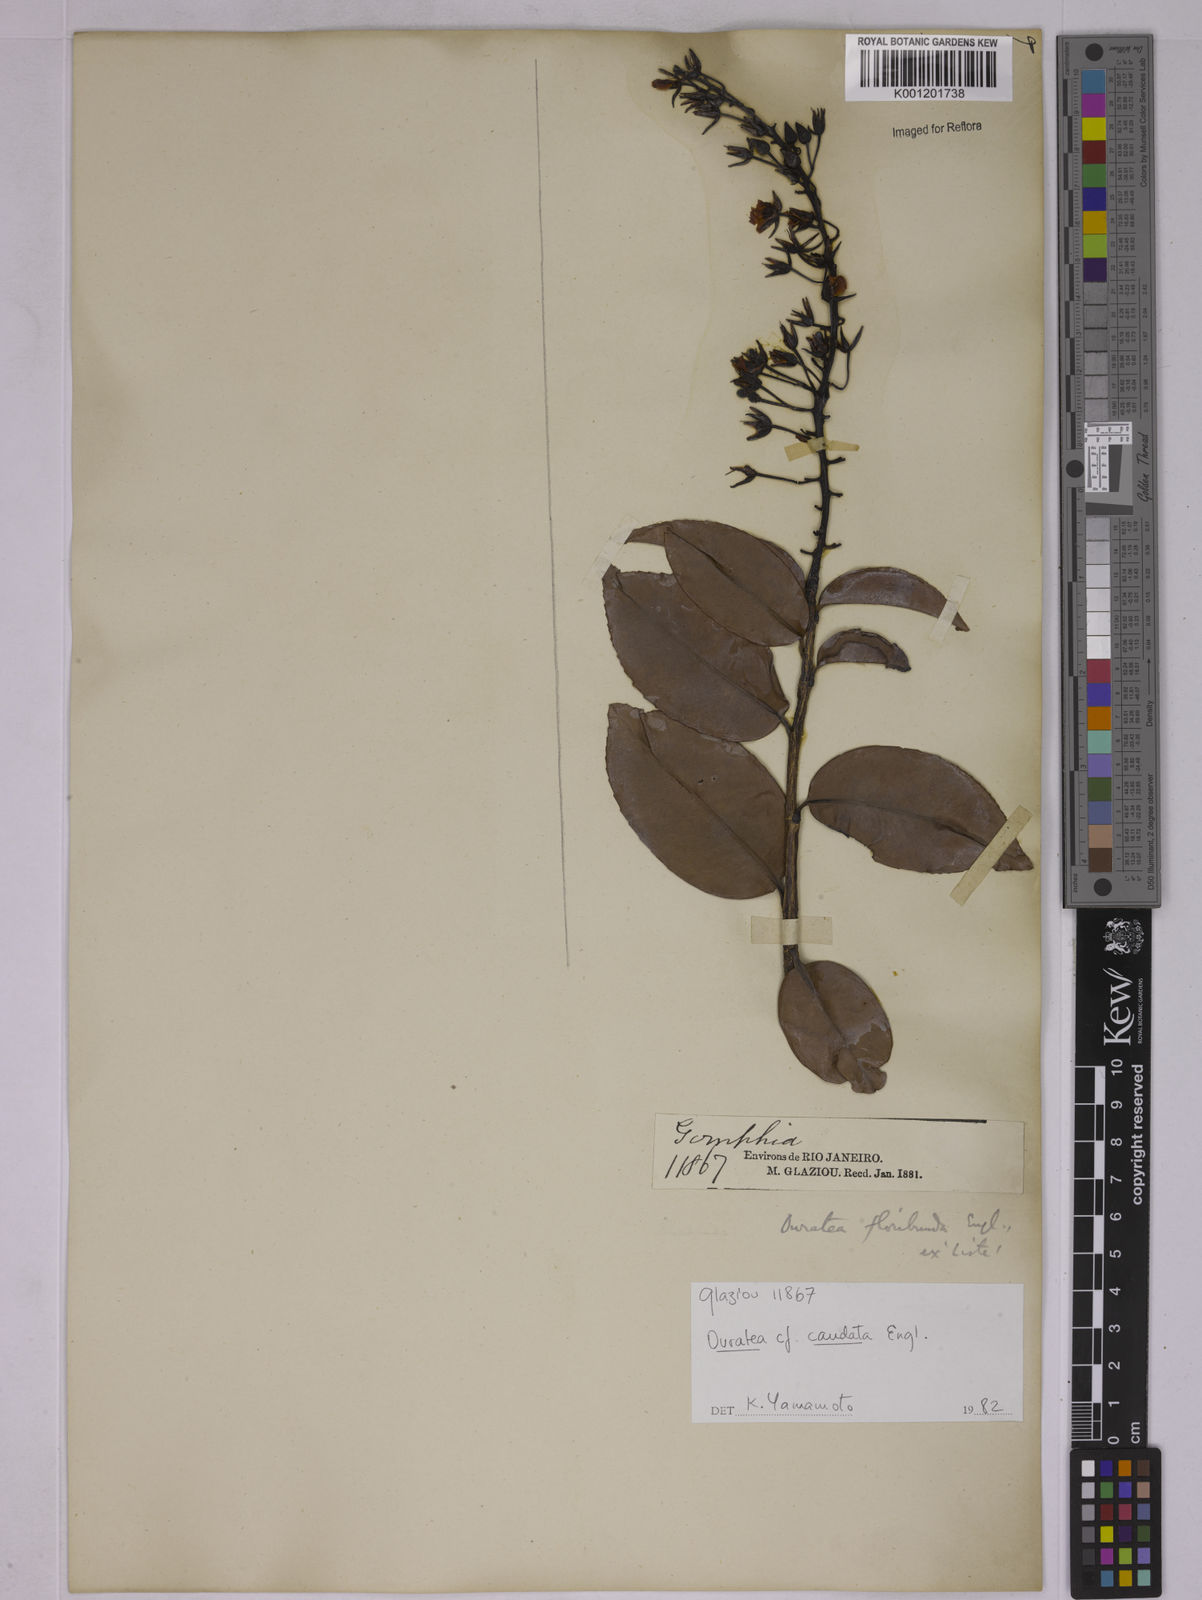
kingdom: Plantae
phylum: Tracheophyta
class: Magnoliopsida
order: Malpighiales
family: Ochnaceae
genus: Ouratea
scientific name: Ouratea caudata
